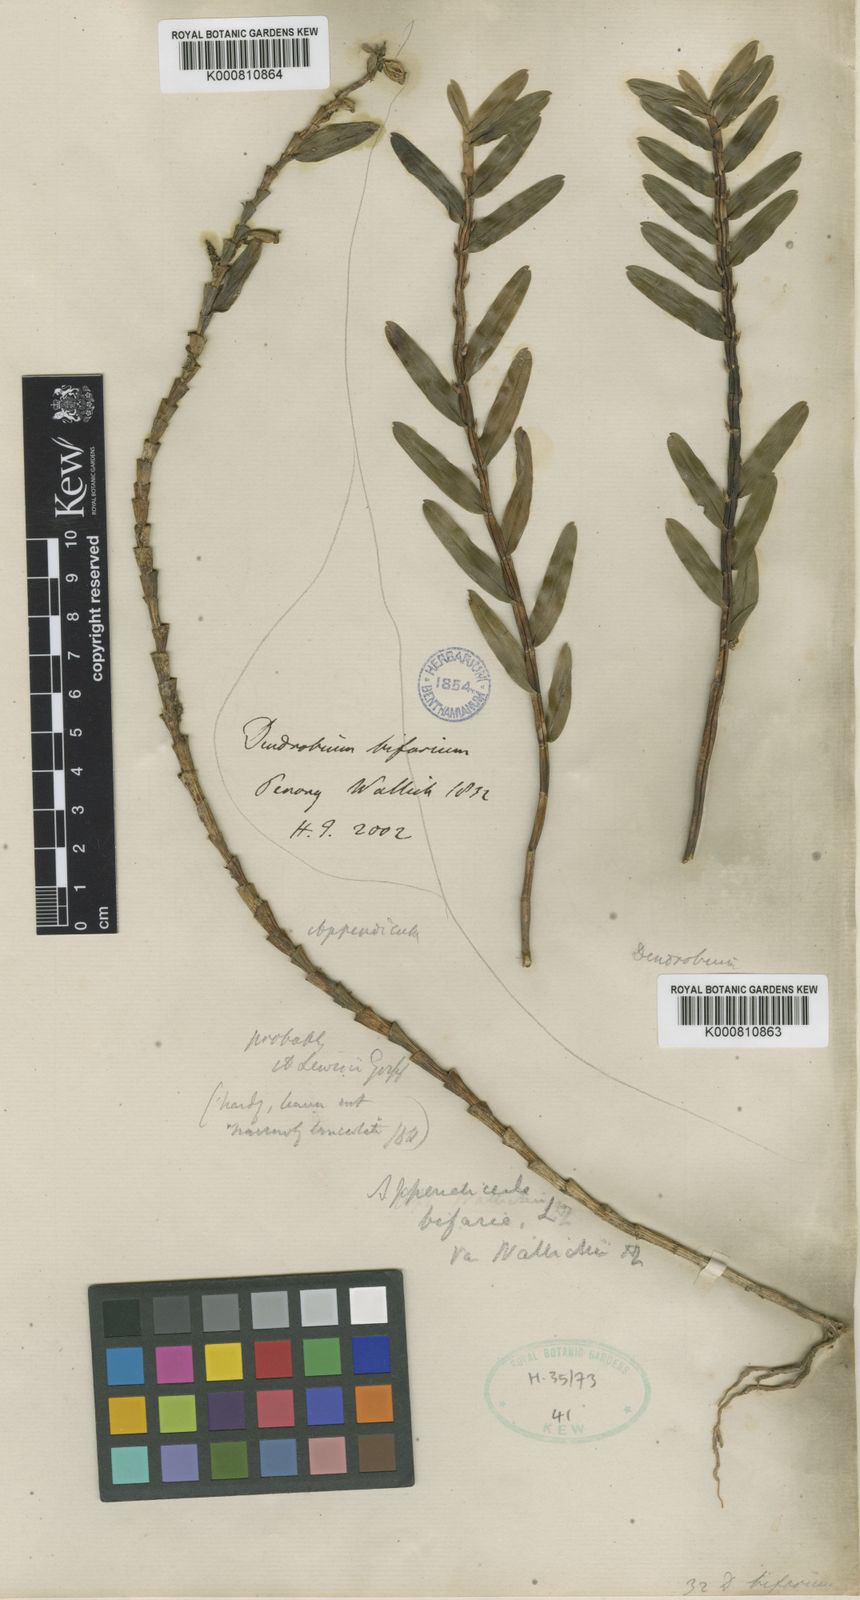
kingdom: Plantae
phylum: Tracheophyta
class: Liliopsida
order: Asparagales
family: Orchidaceae
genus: Appendicula
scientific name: Appendicula
